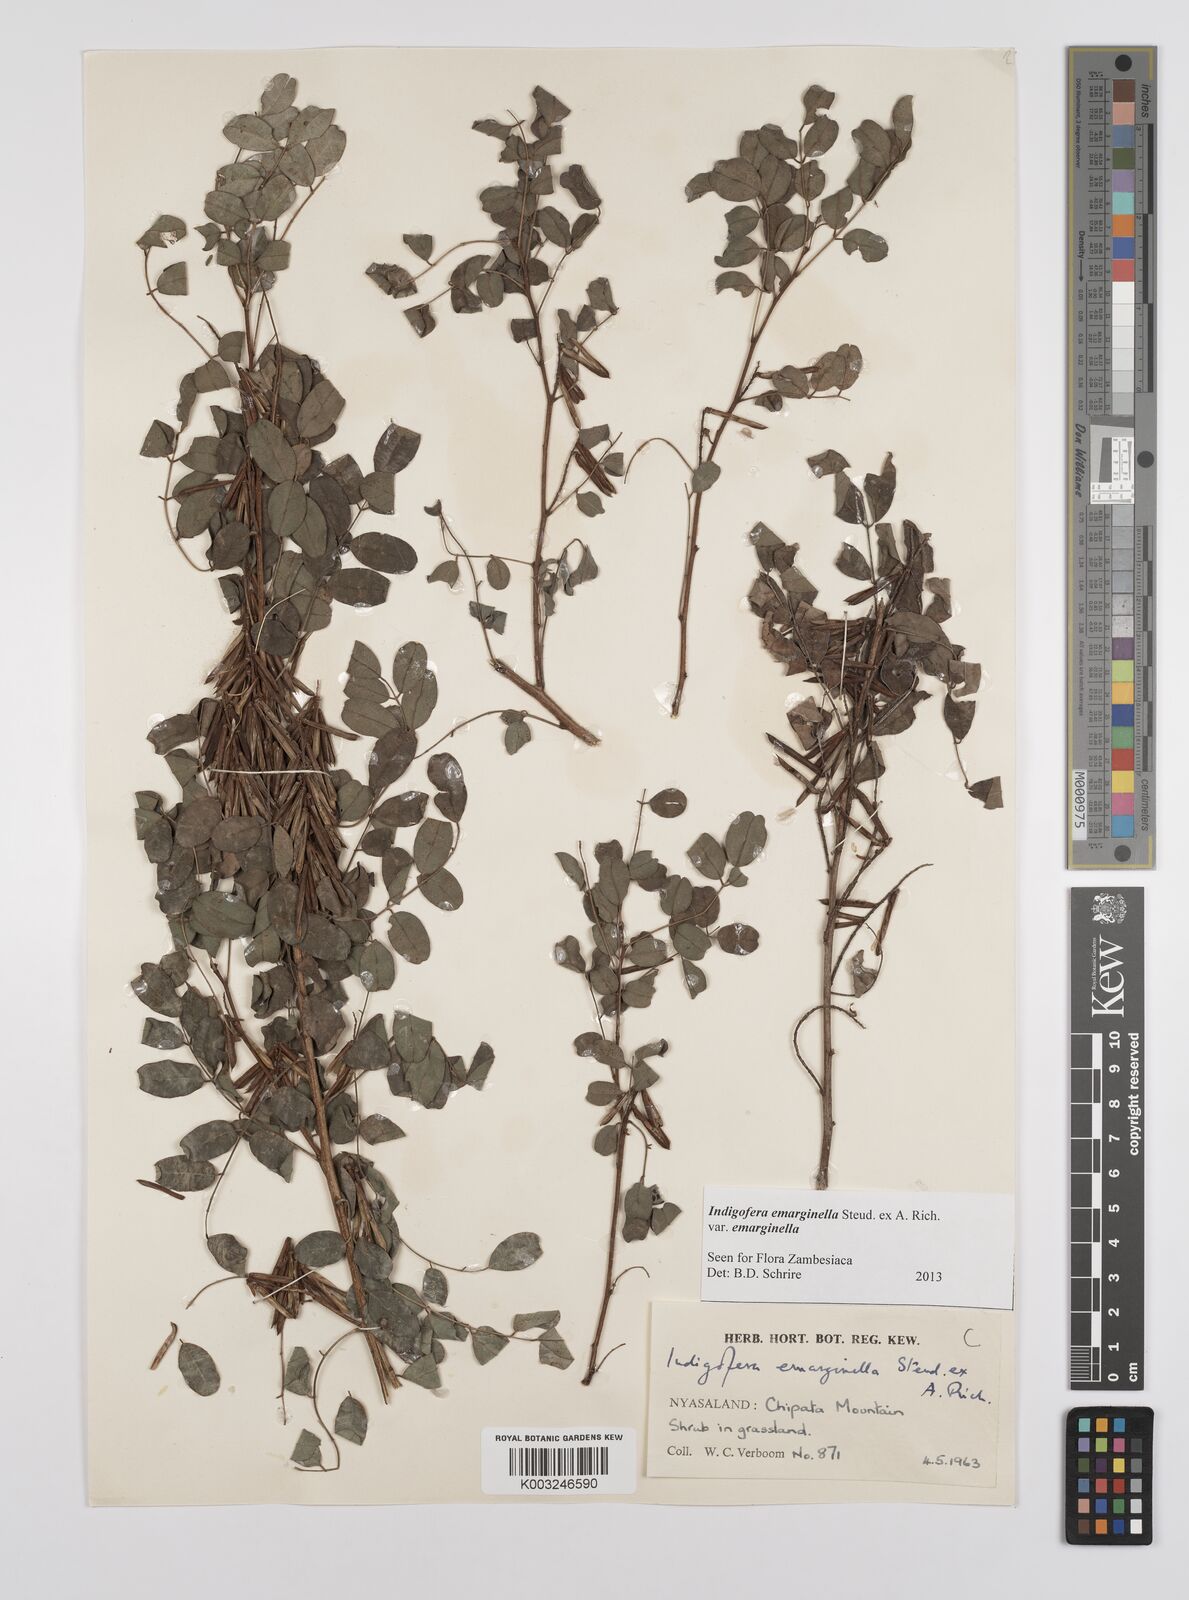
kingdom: Plantae
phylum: Tracheophyta
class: Magnoliopsida
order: Fabales
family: Fabaceae
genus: Indigofera
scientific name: Indigofera emarginella
